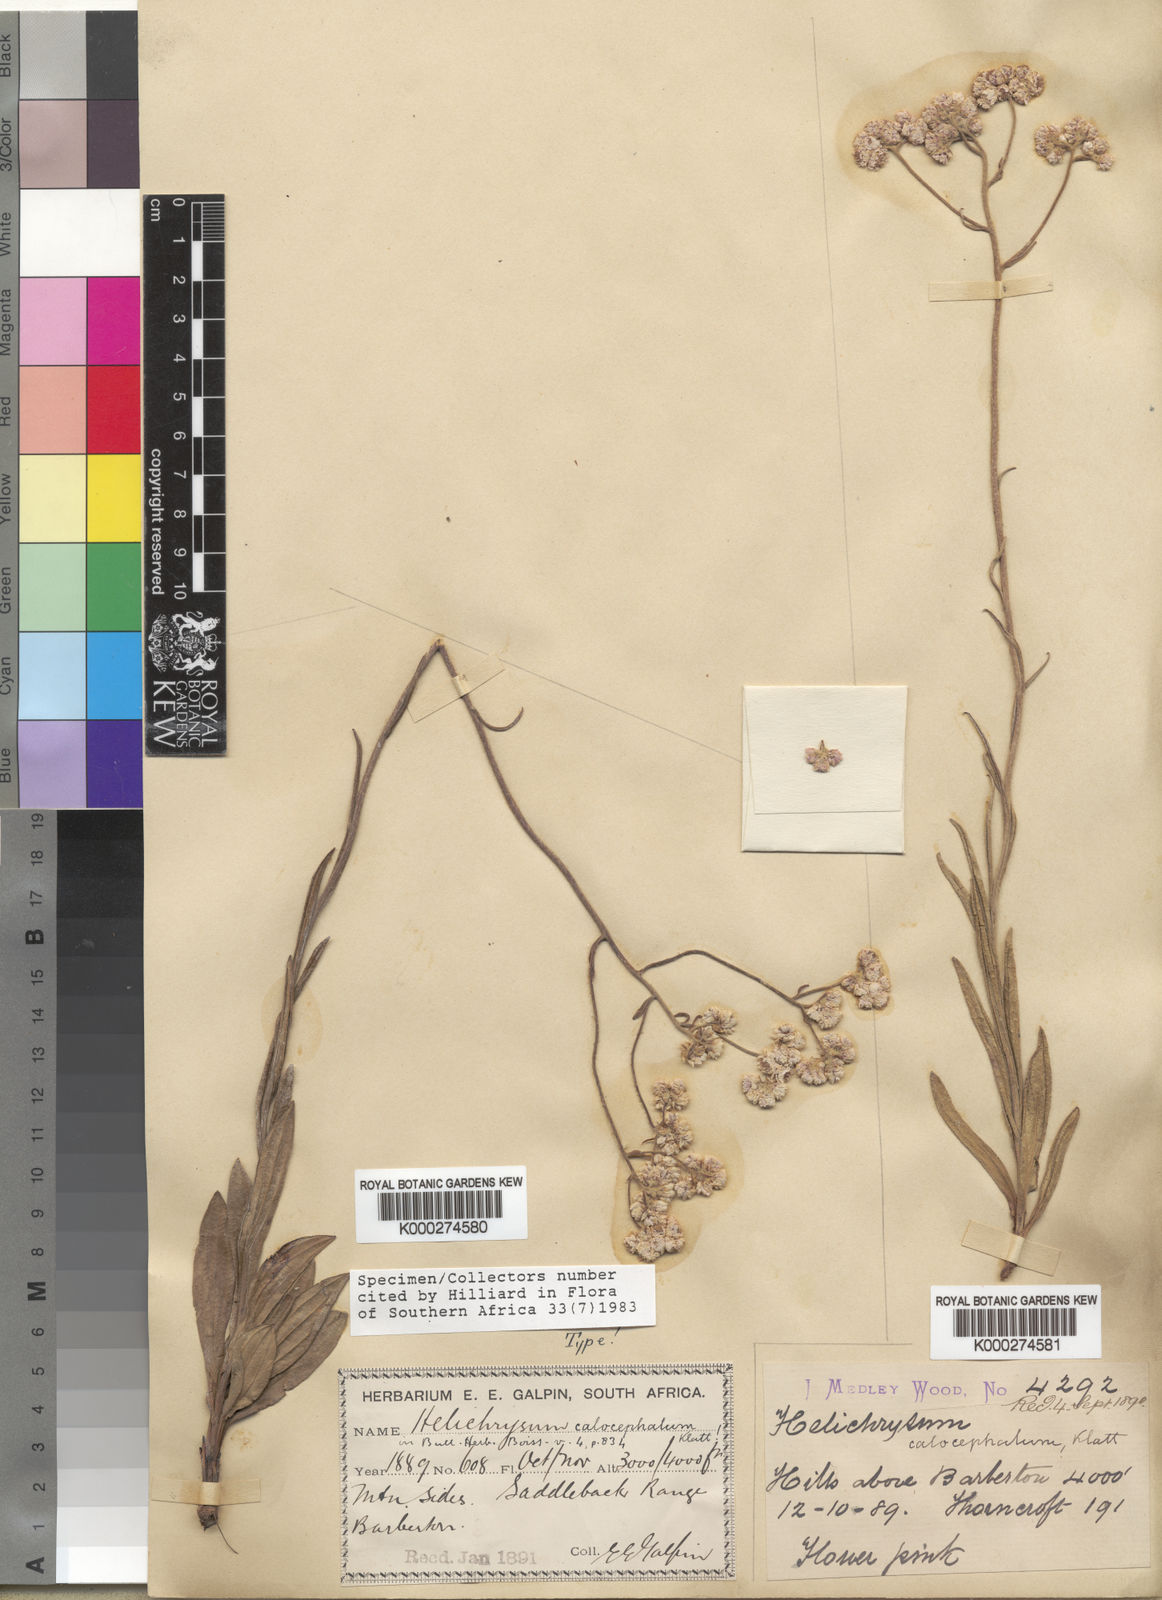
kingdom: Plantae
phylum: Tracheophyta
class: Magnoliopsida
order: Asterales
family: Asteraceae
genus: Helichrysum
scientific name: Helichrysum calocephalum
